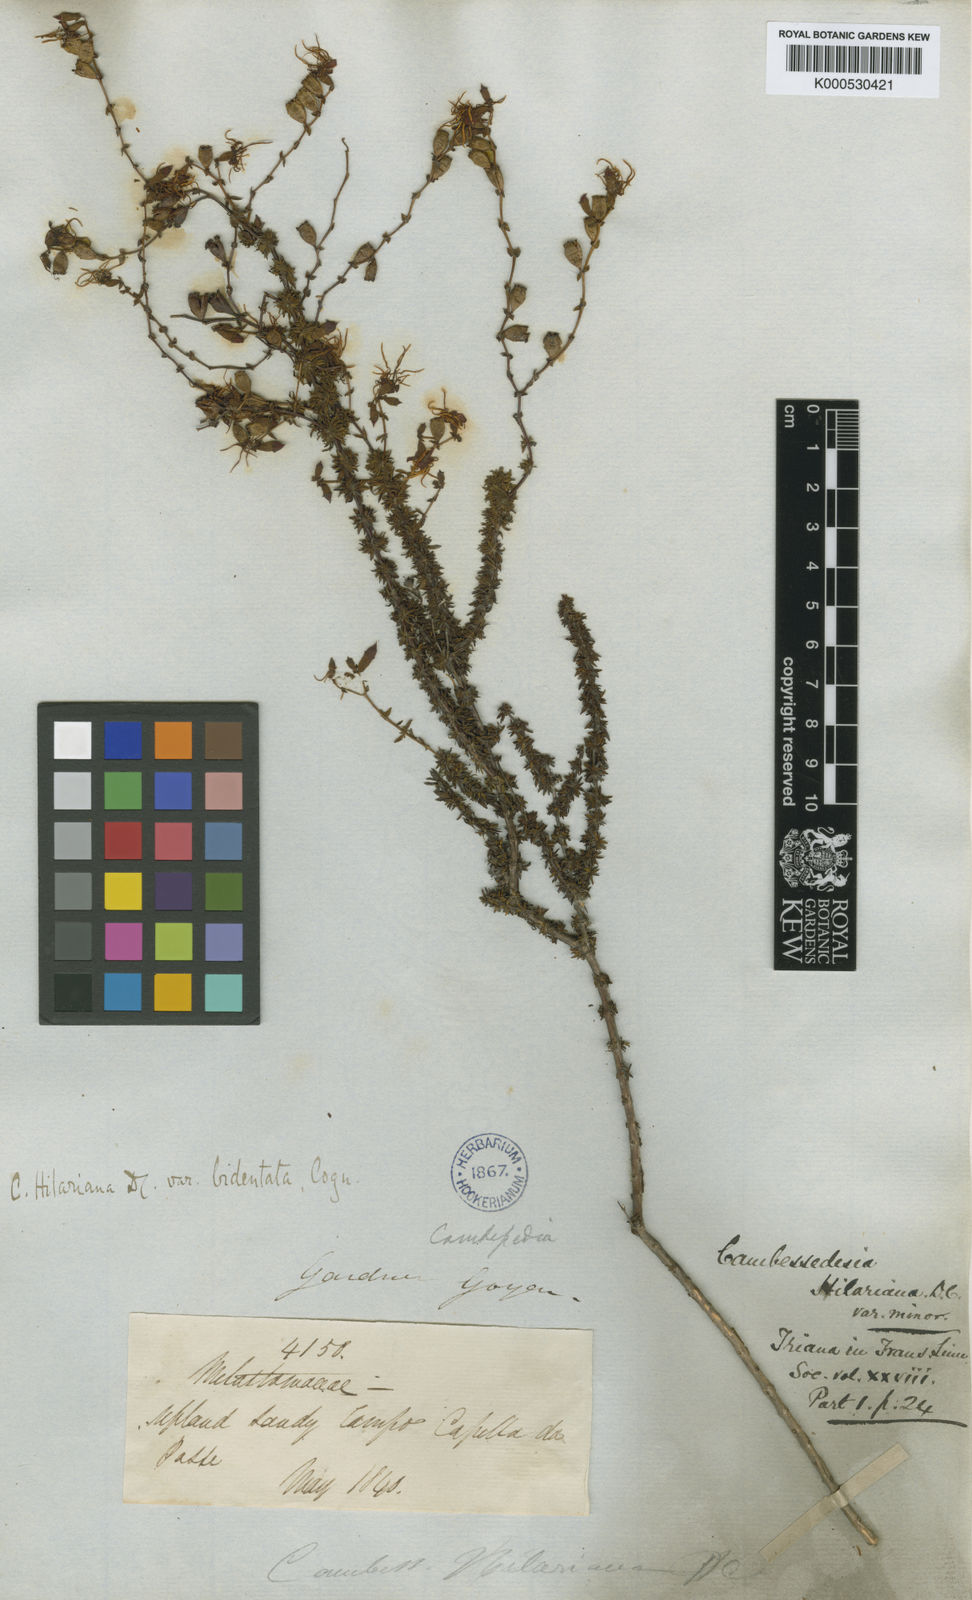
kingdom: Plantae
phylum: Tracheophyta
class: Magnoliopsida
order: Myrtales
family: Melastomataceae
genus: Cambessedesia
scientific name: Cambessedesia hilariana
